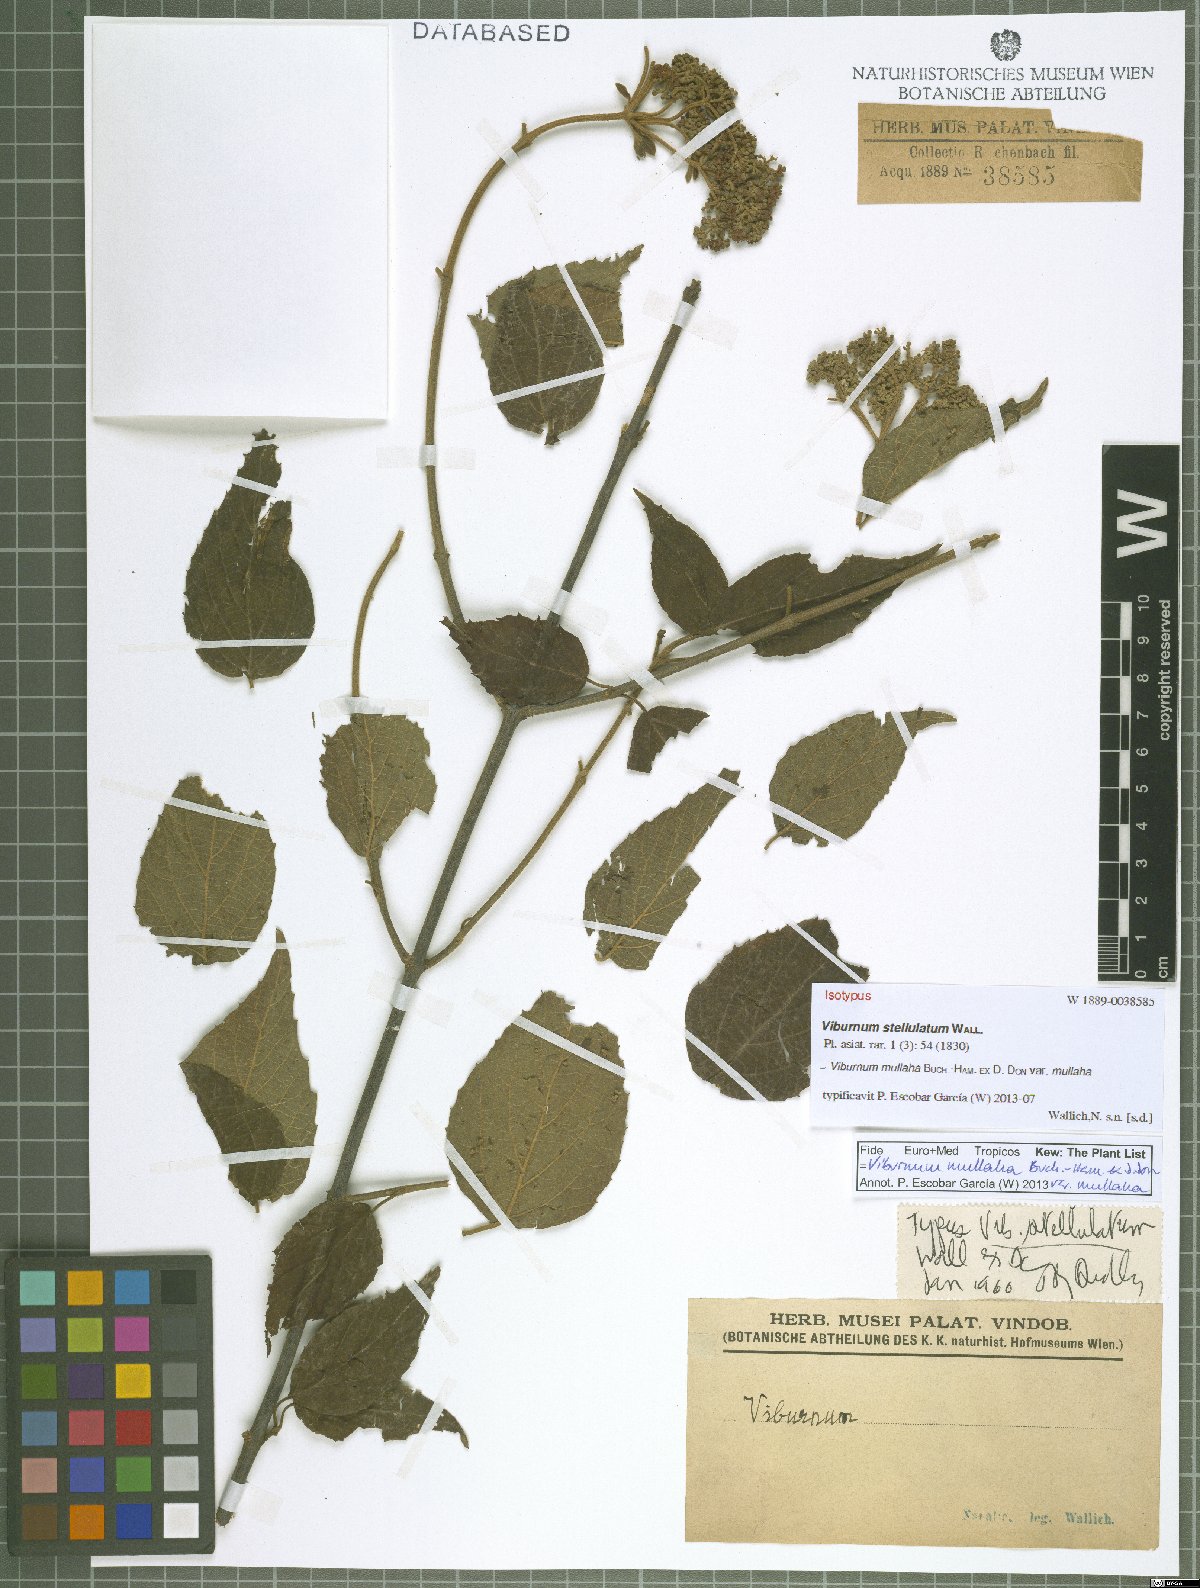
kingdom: Plantae
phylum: Tracheophyta
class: Magnoliopsida
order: Dipsacales
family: Viburnaceae
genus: Viburnum
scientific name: Viburnum mullaha
